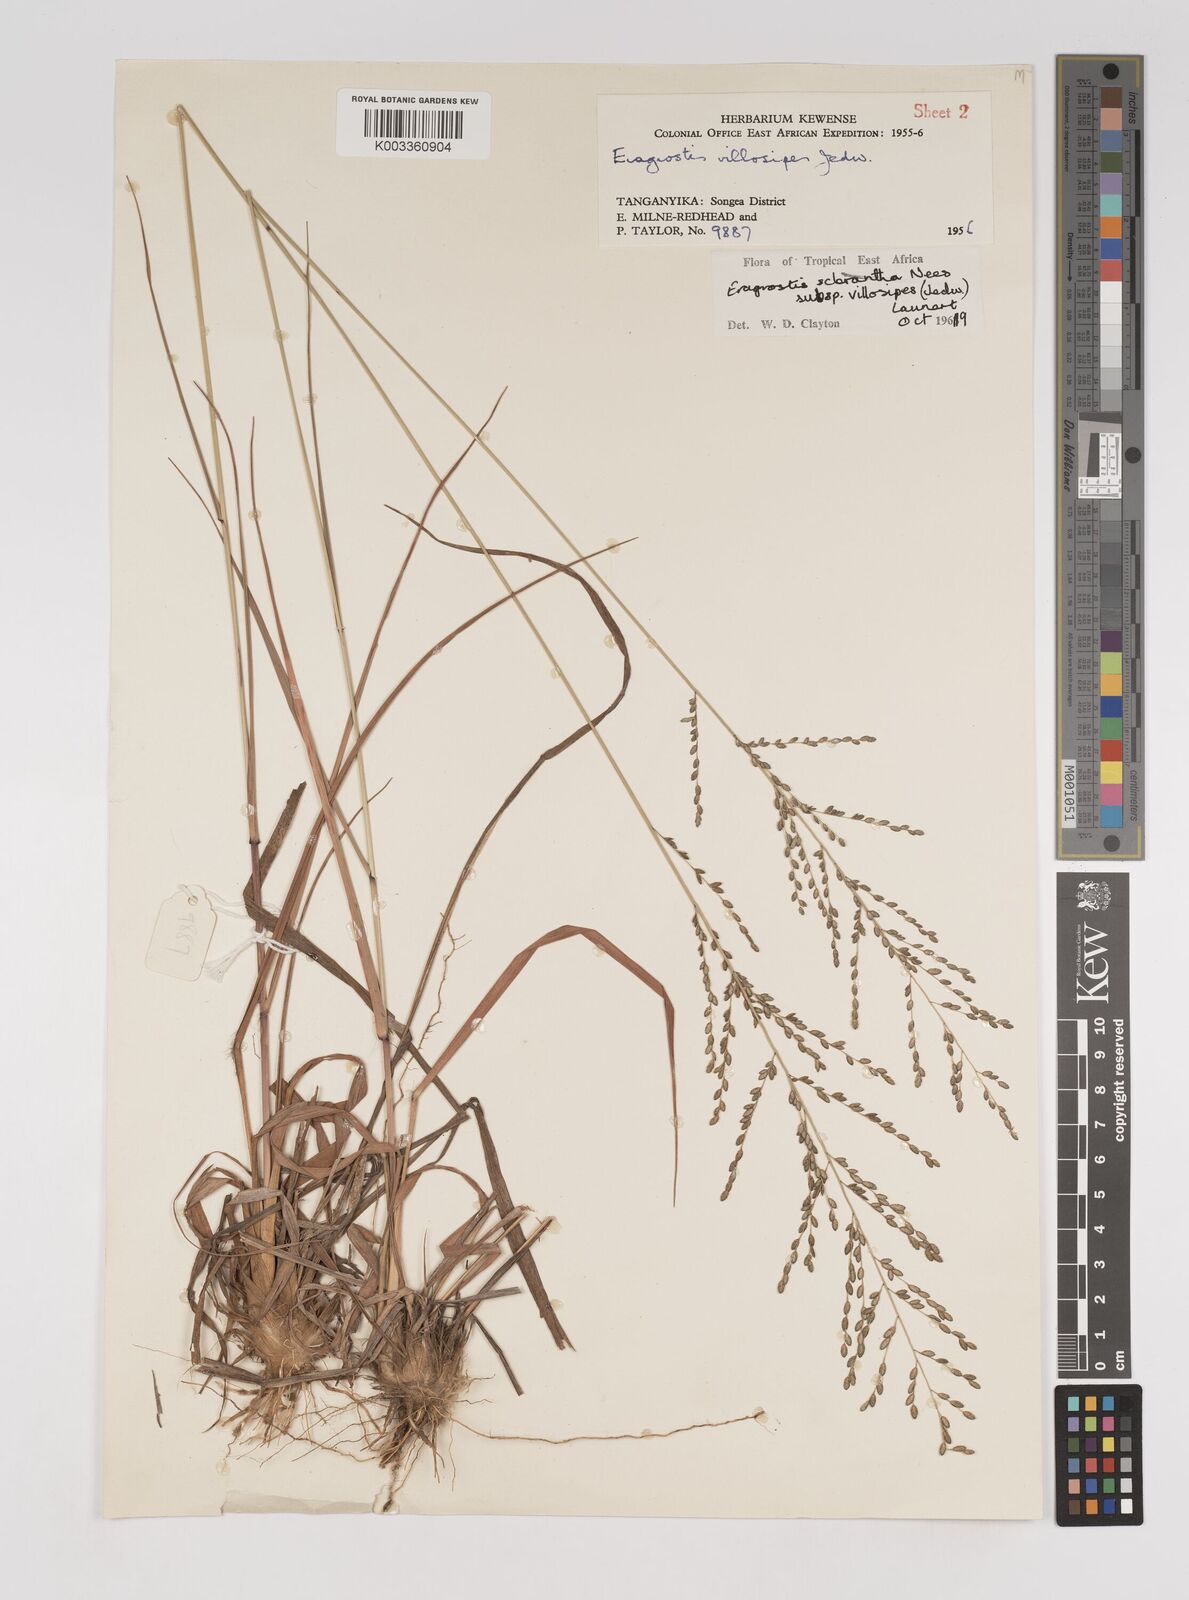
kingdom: Plantae
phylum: Tracheophyta
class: Liliopsida
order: Poales
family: Poaceae
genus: Eragrostis
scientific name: Eragrostis sclerantha
